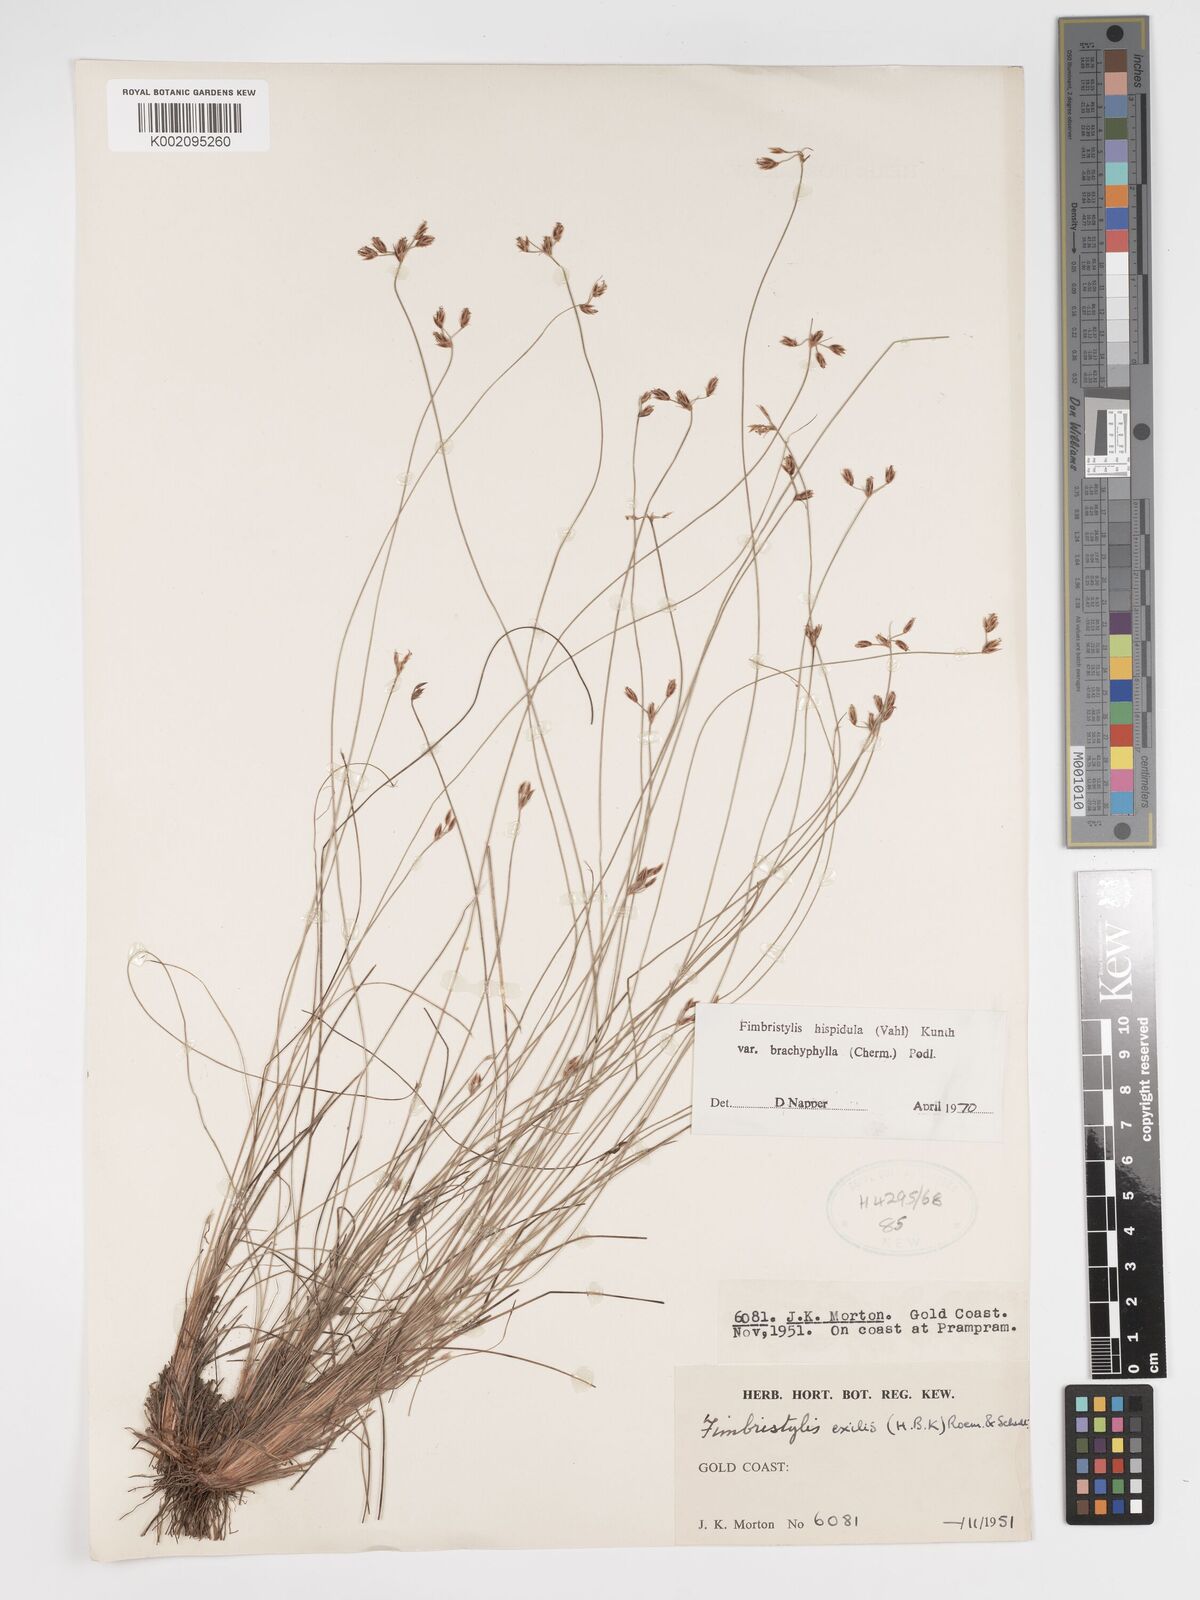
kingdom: Plantae
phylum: Tracheophyta
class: Liliopsida
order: Poales
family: Cyperaceae
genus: Bulbostylis
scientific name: Bulbostylis hispidula
